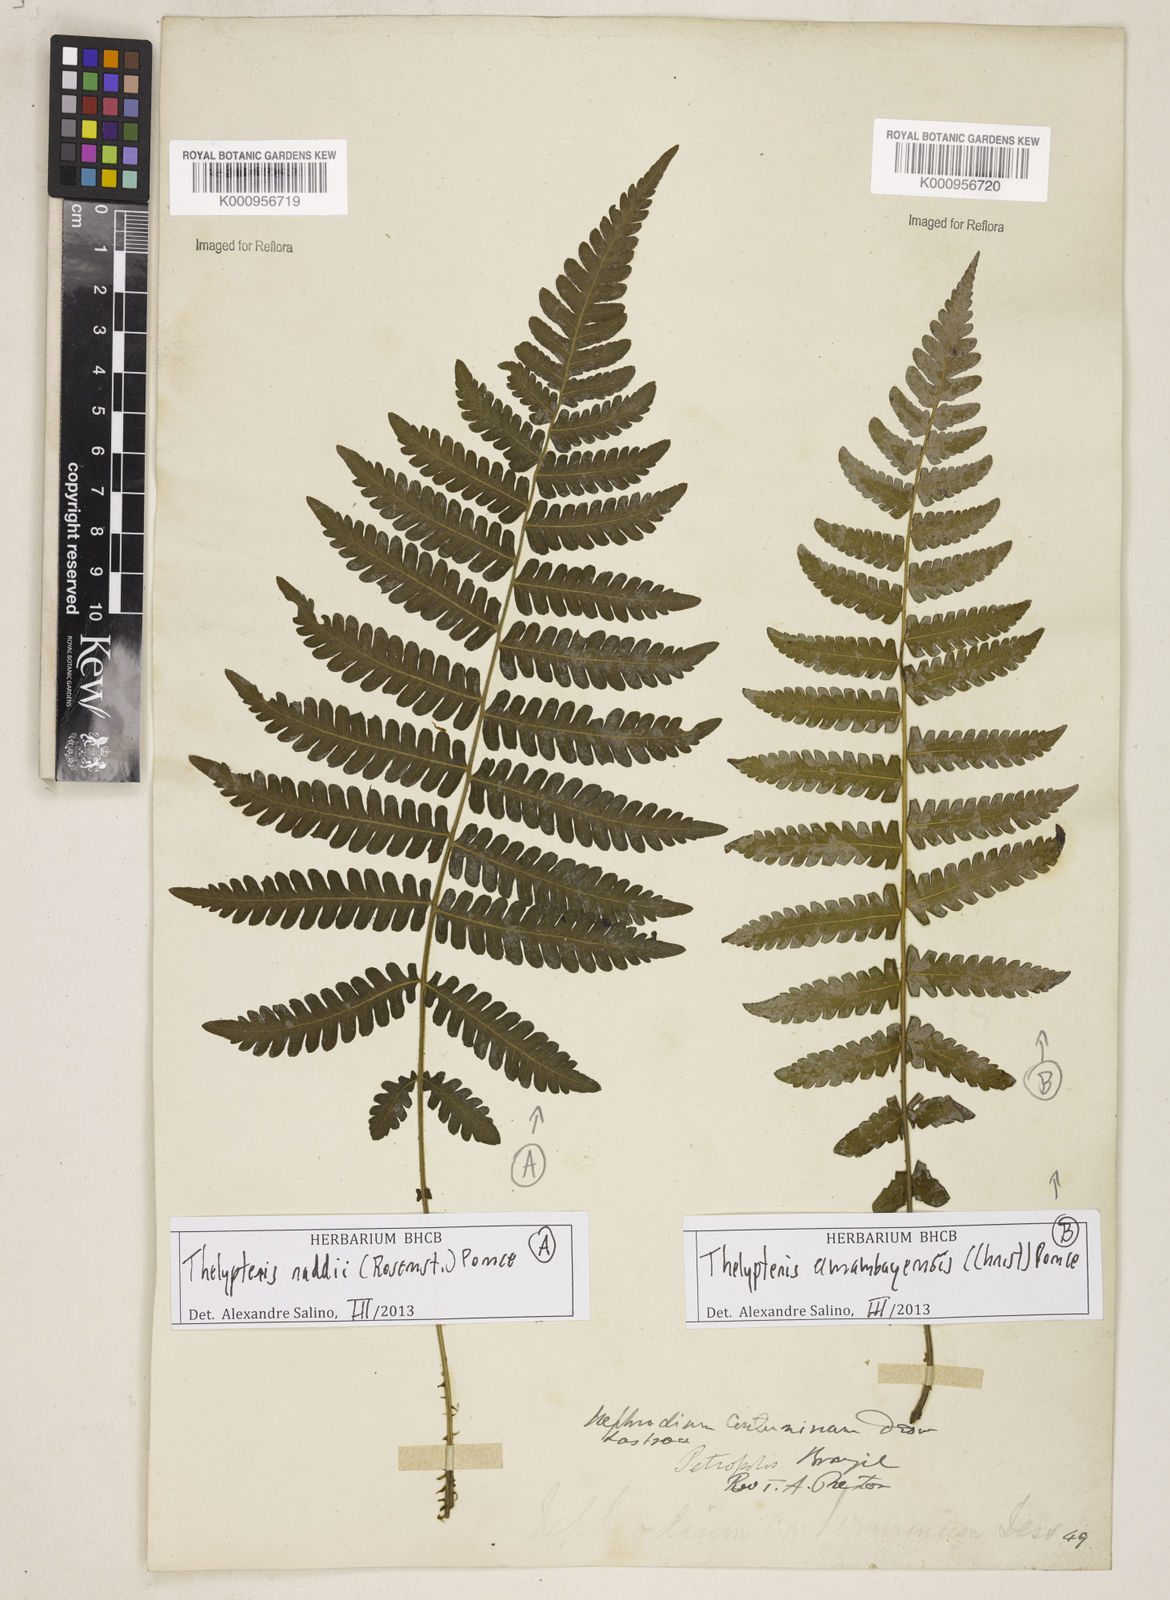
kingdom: Plantae
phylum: Tracheophyta
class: Polypodiopsida
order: Polypodiales
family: Thelypteridaceae
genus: Amauropelta
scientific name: Amauropelta raddii
